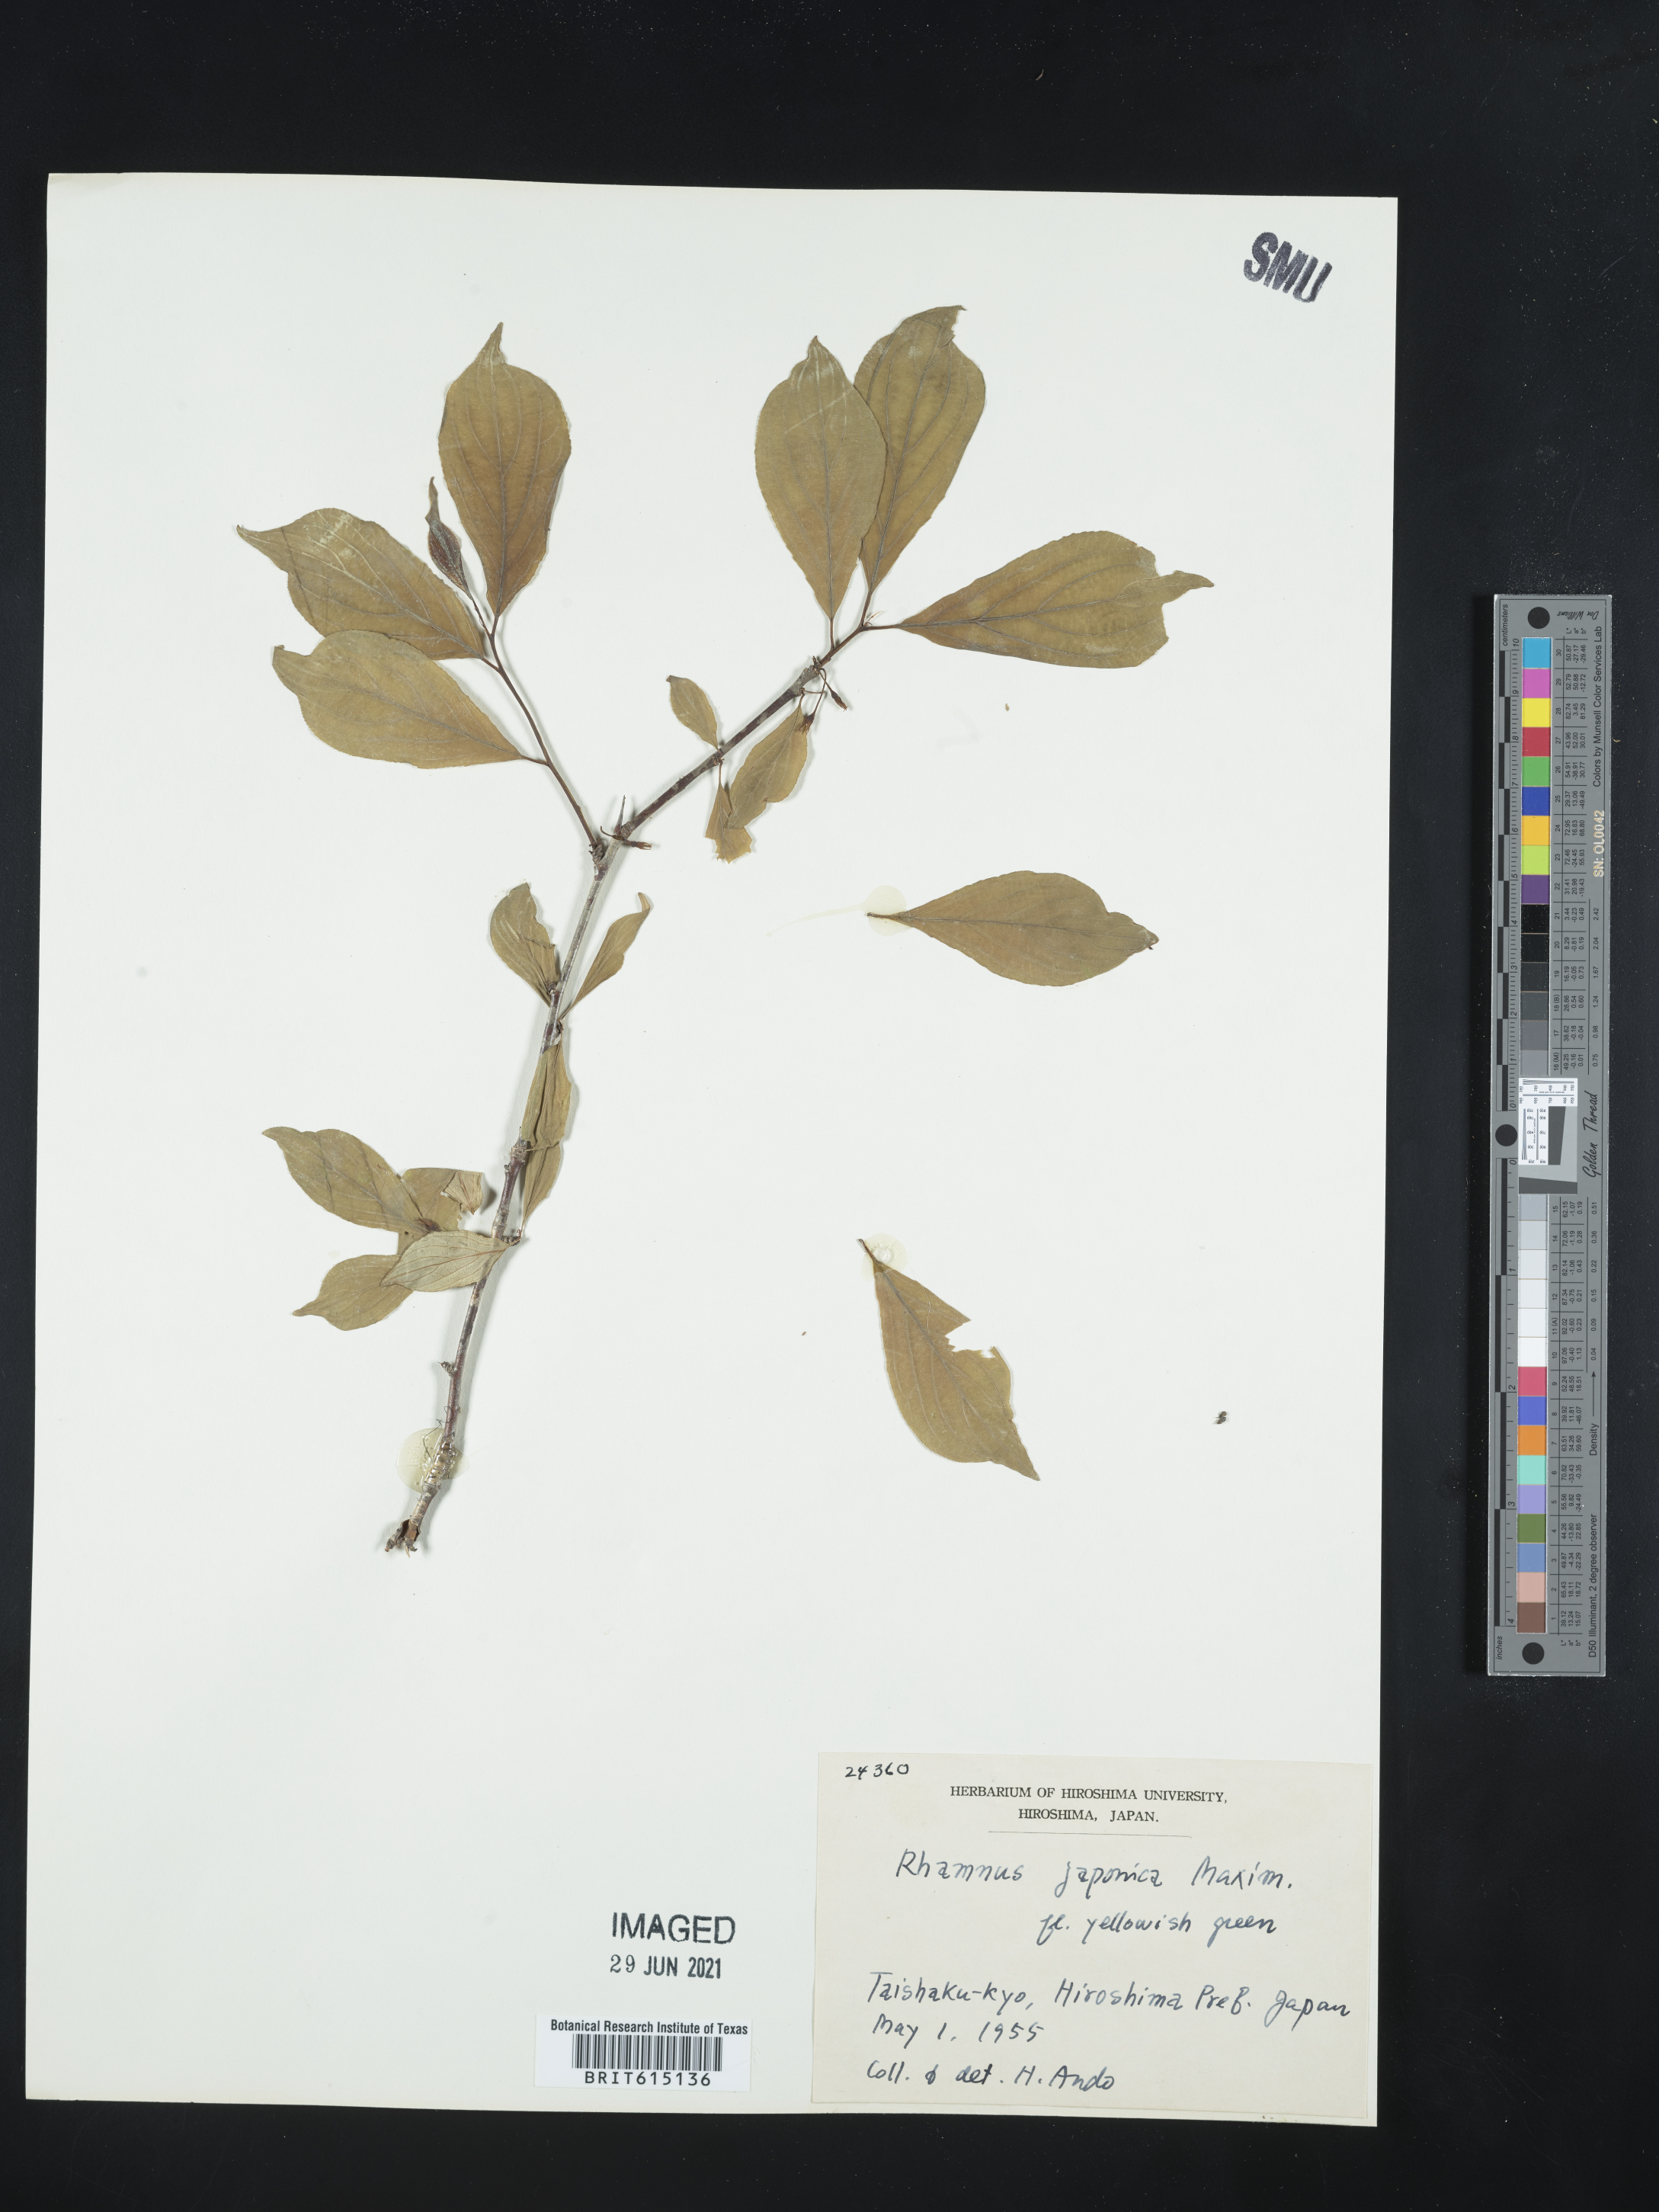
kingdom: Plantae
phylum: Tracheophyta
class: Magnoliopsida
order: Rosales
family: Rhamnaceae
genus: Rhamnus
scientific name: Rhamnus japonica
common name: Japanese buckthorn
